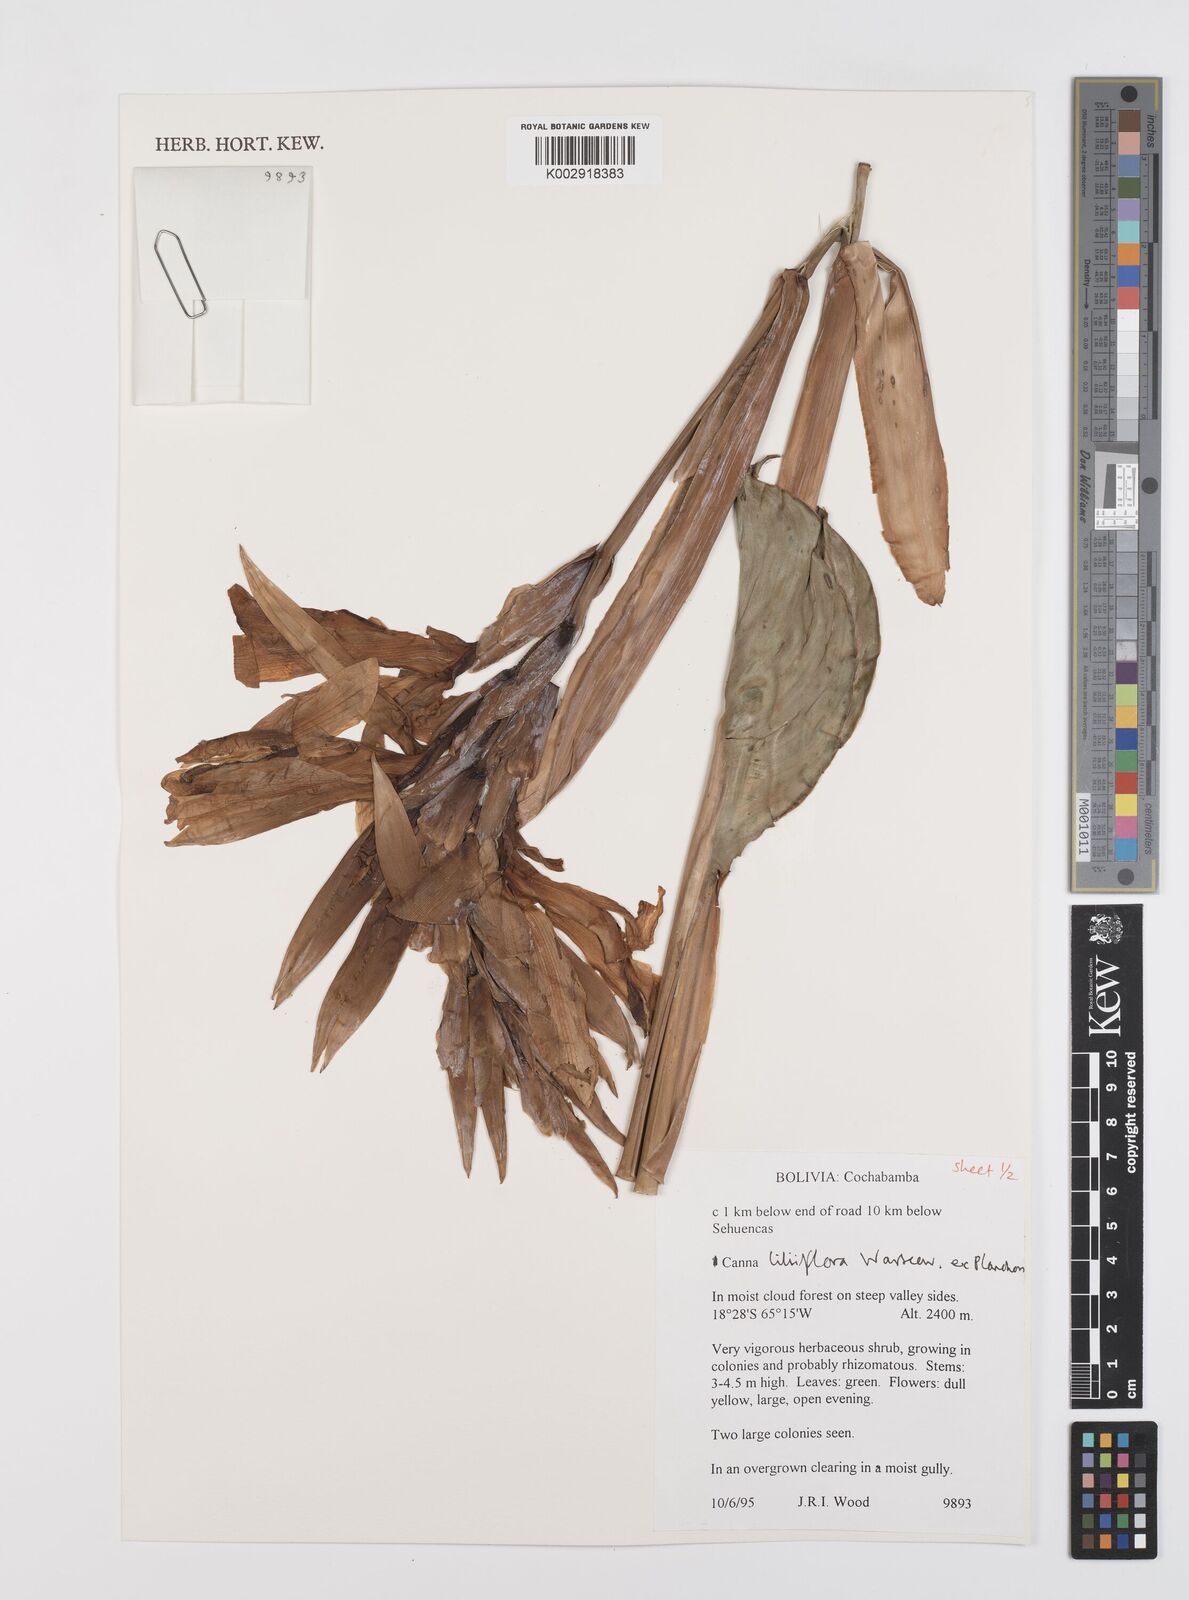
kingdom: Plantae
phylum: Tracheophyta
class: Liliopsida
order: Zingiberales
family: Cannaceae
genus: Canna
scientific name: Canna liliiflora
